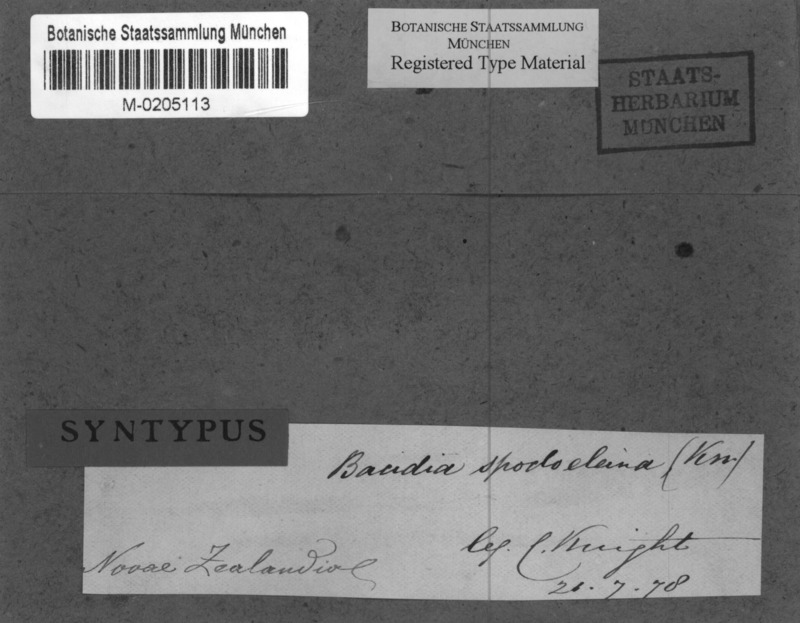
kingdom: Fungi
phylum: Ascomycota
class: Lecanoromycetes
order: Lecanorales
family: Ramalinaceae
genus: Bacidia
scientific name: Bacidia wellingtonii
